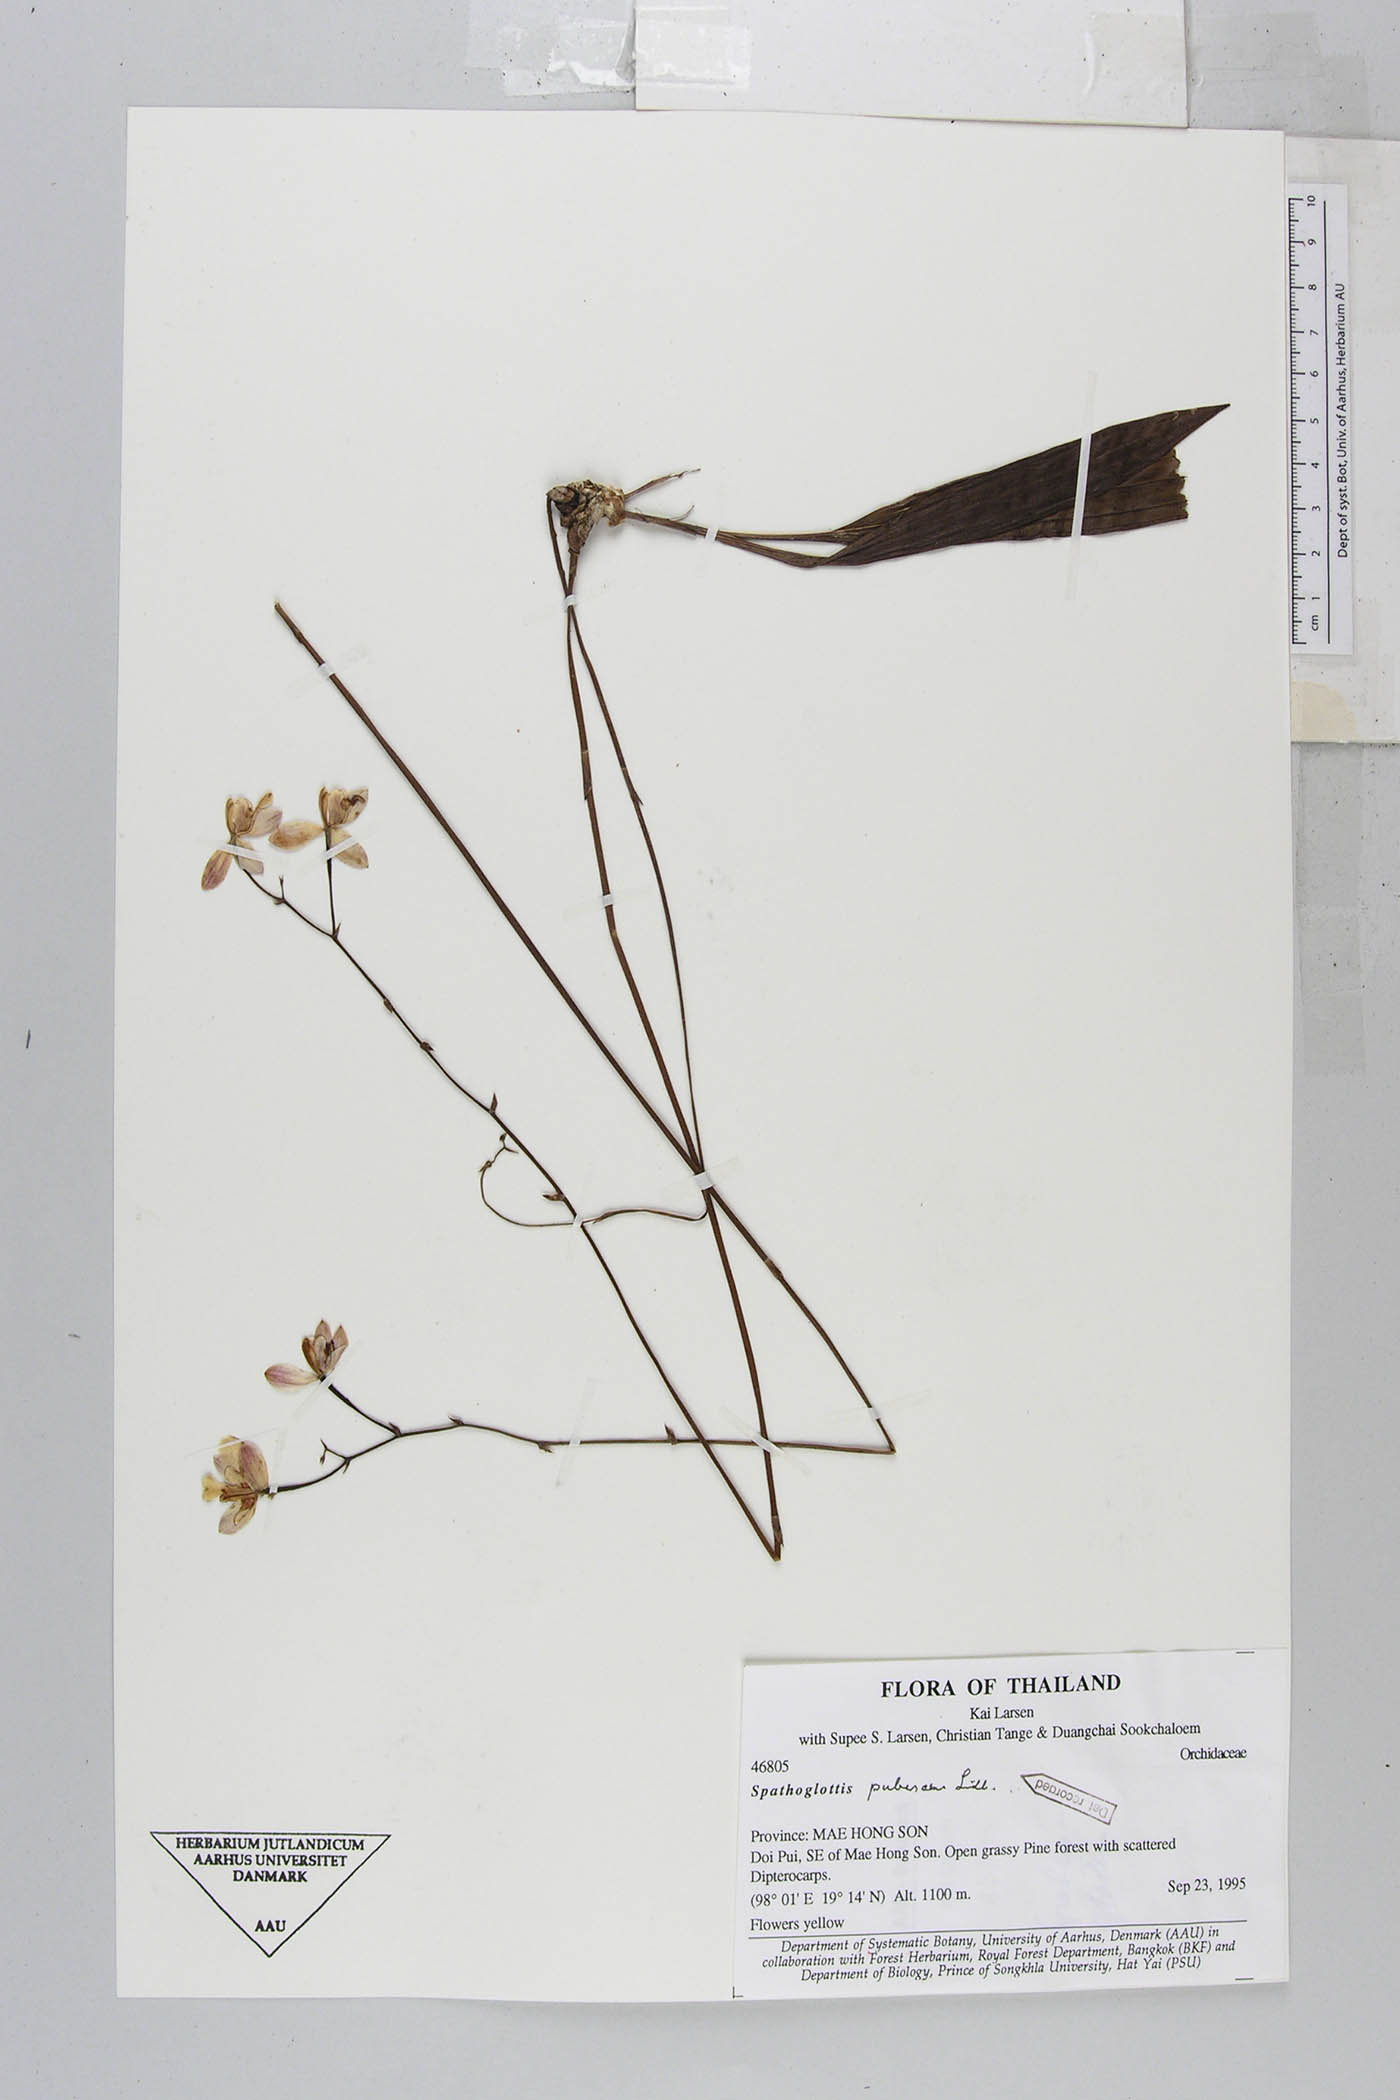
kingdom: Plantae
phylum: Tracheophyta
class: Liliopsida
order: Asparagales
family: Orchidaceae
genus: Spathoglottis
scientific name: Spathoglottis pubescens
